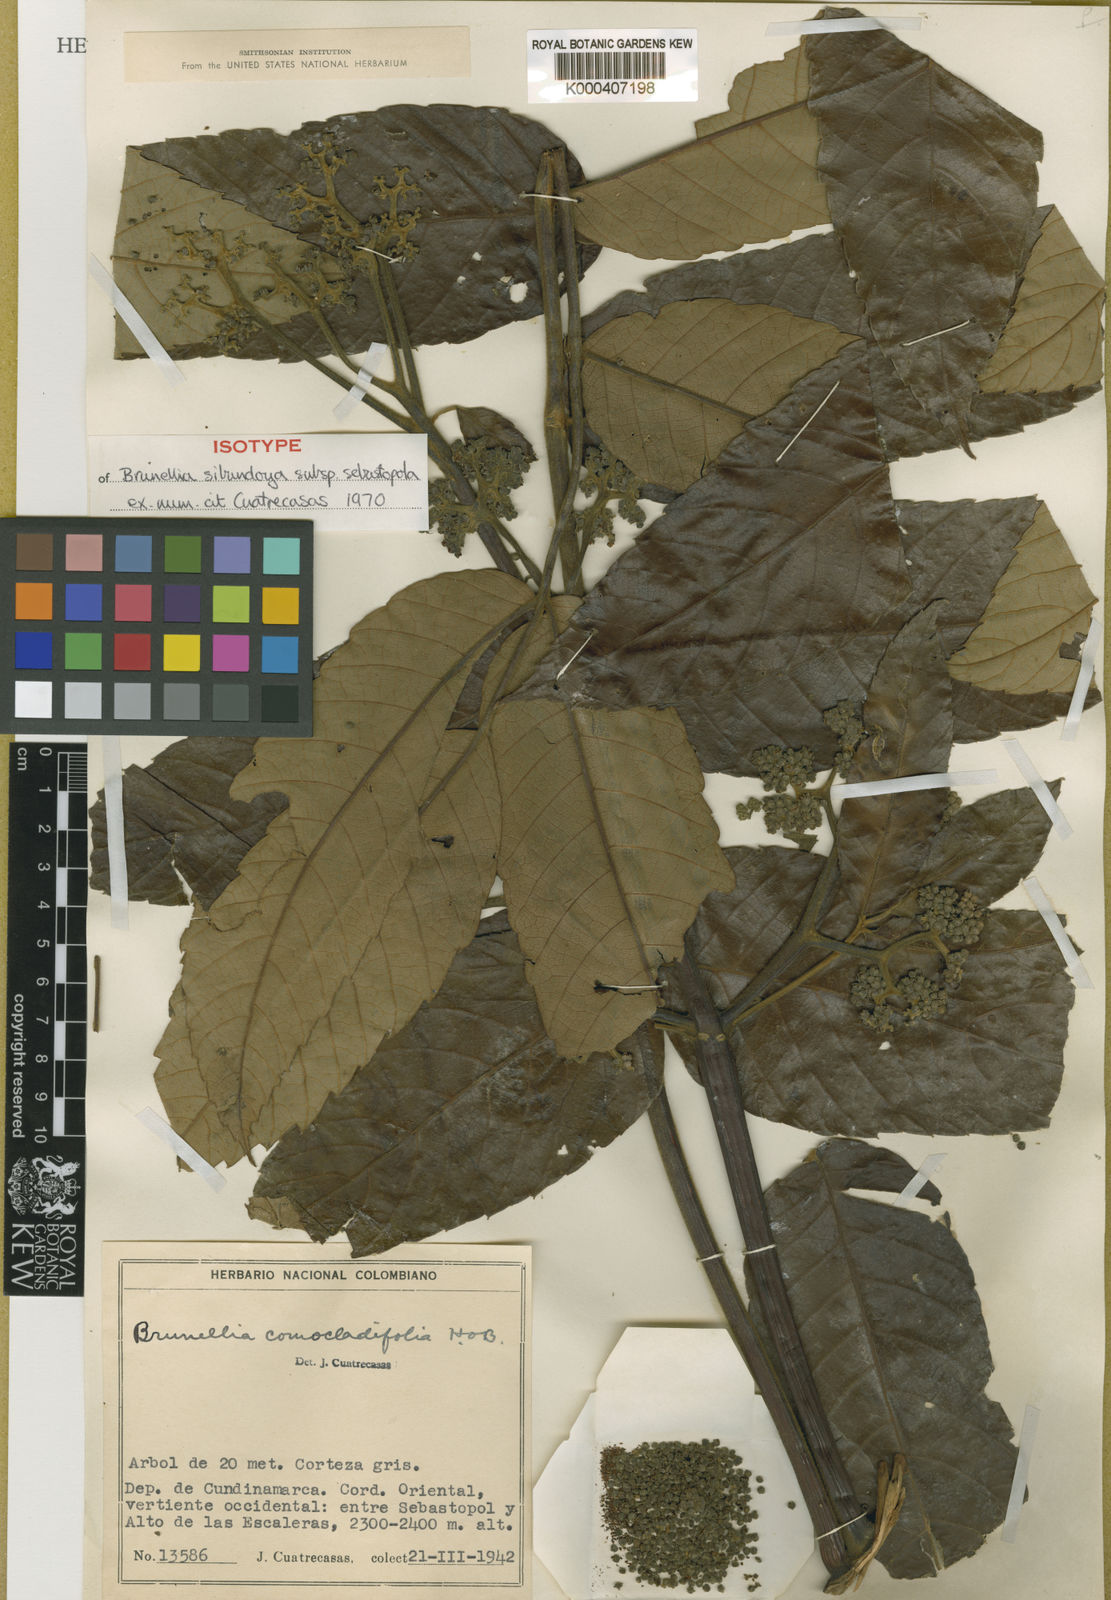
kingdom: Plantae
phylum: Tracheophyta
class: Magnoliopsida
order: Oxalidales
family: Brunelliaceae
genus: Brunellia
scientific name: Brunellia sibundoya
